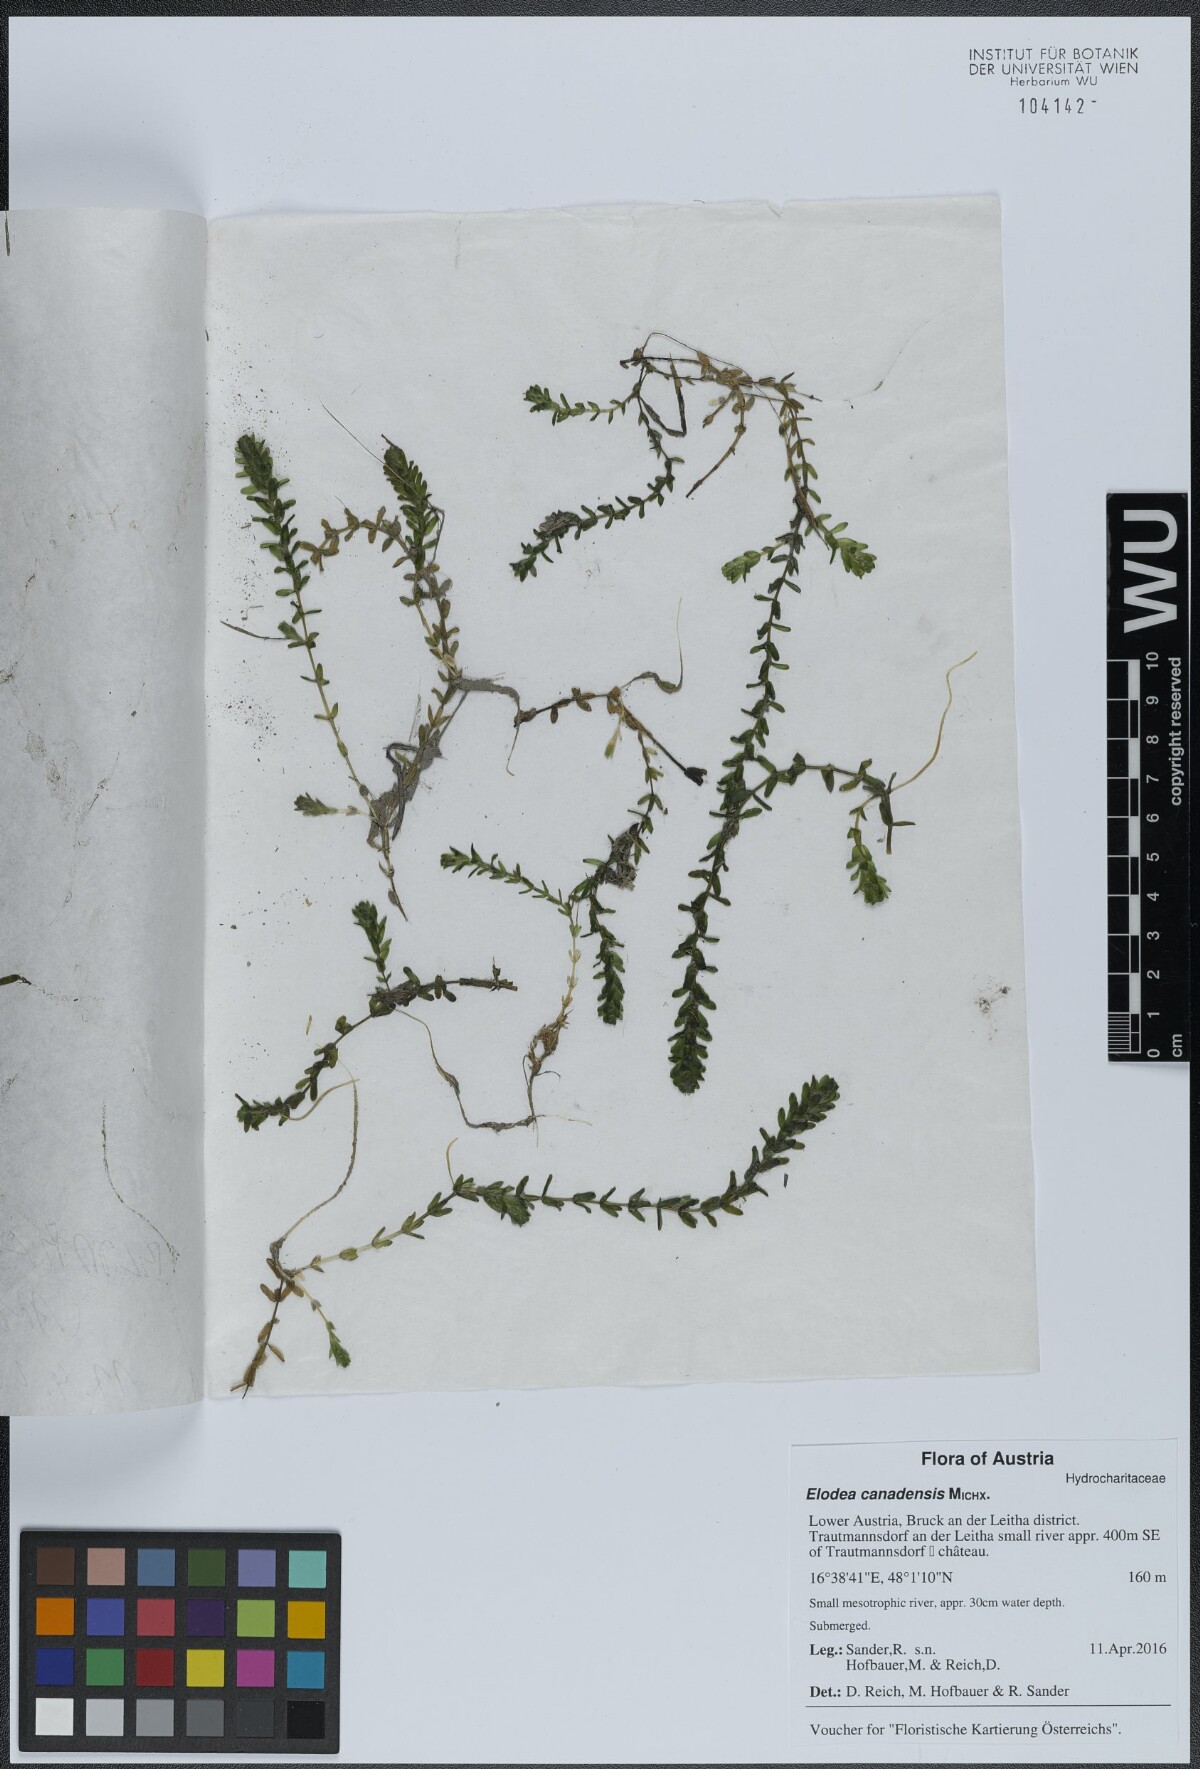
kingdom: Plantae
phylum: Tracheophyta
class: Liliopsida
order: Alismatales
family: Hydrocharitaceae
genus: Elodea
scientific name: Elodea canadensis
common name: Canadian waterweed
